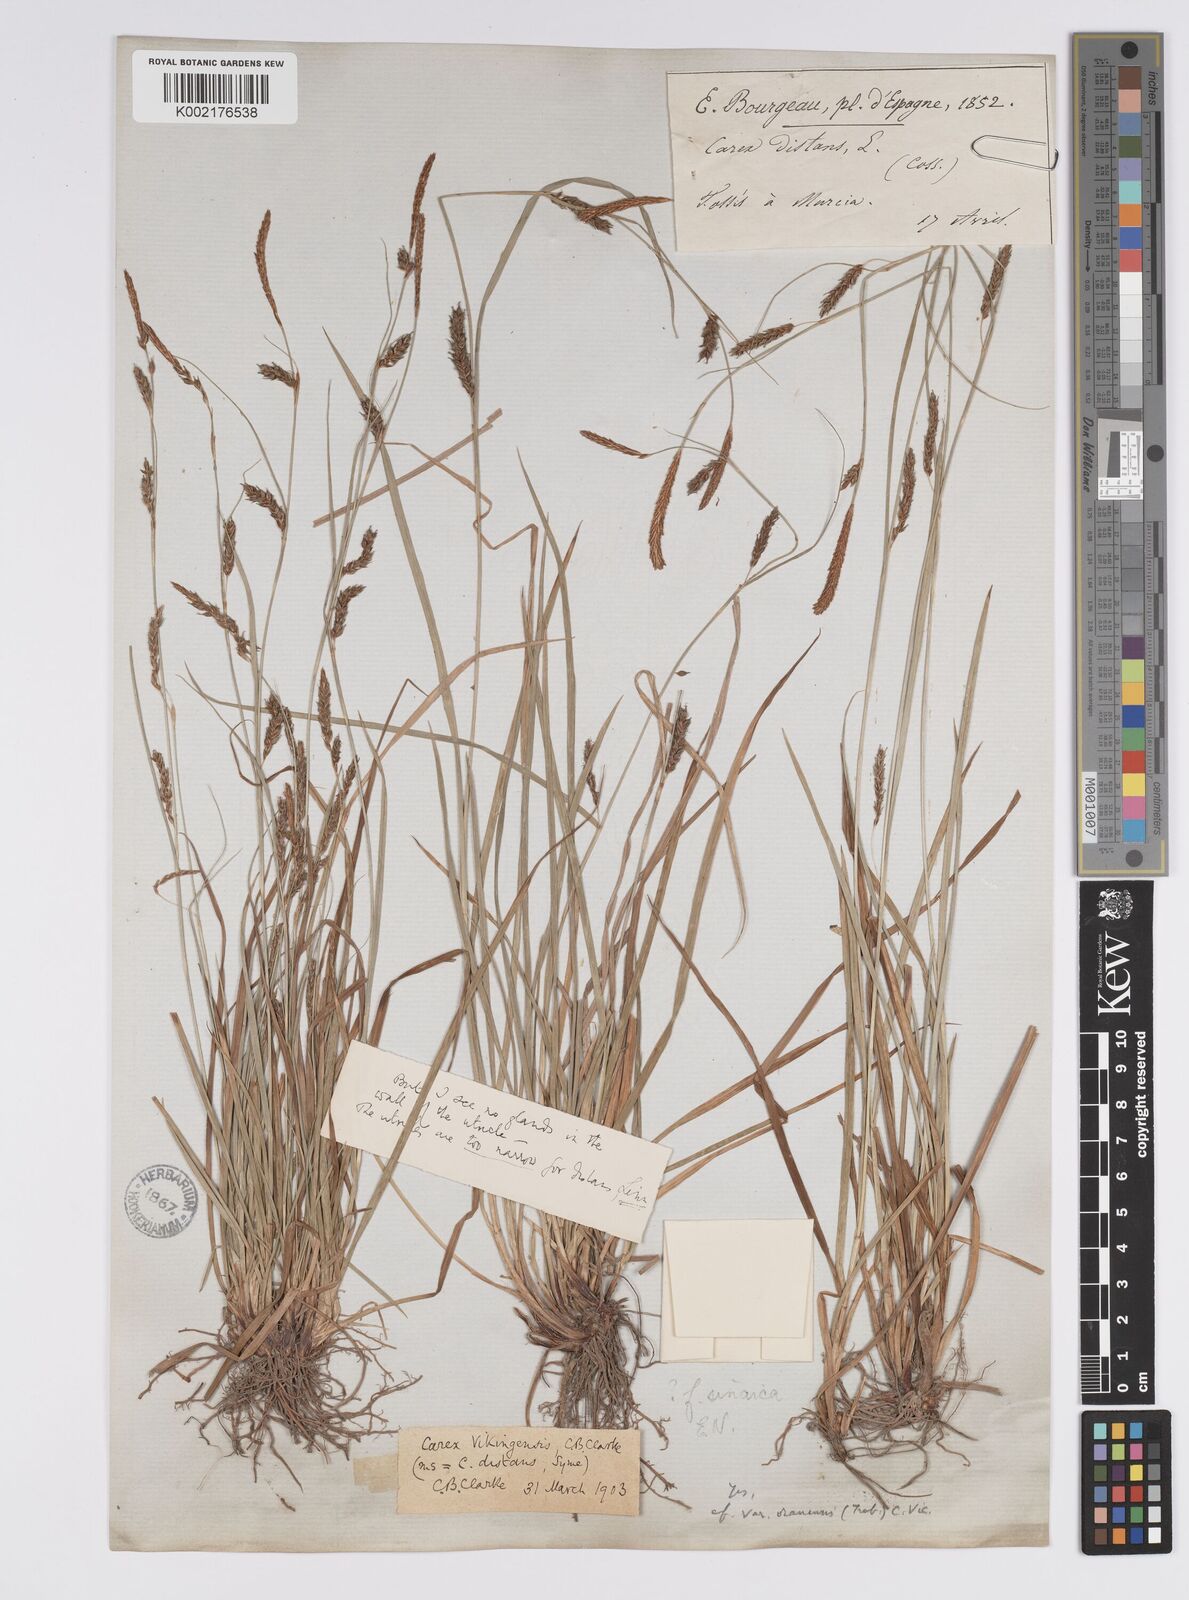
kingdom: Plantae
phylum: Tracheophyta
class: Liliopsida
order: Poales
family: Cyperaceae
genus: Carex
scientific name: Carex distans
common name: Distant sedge
